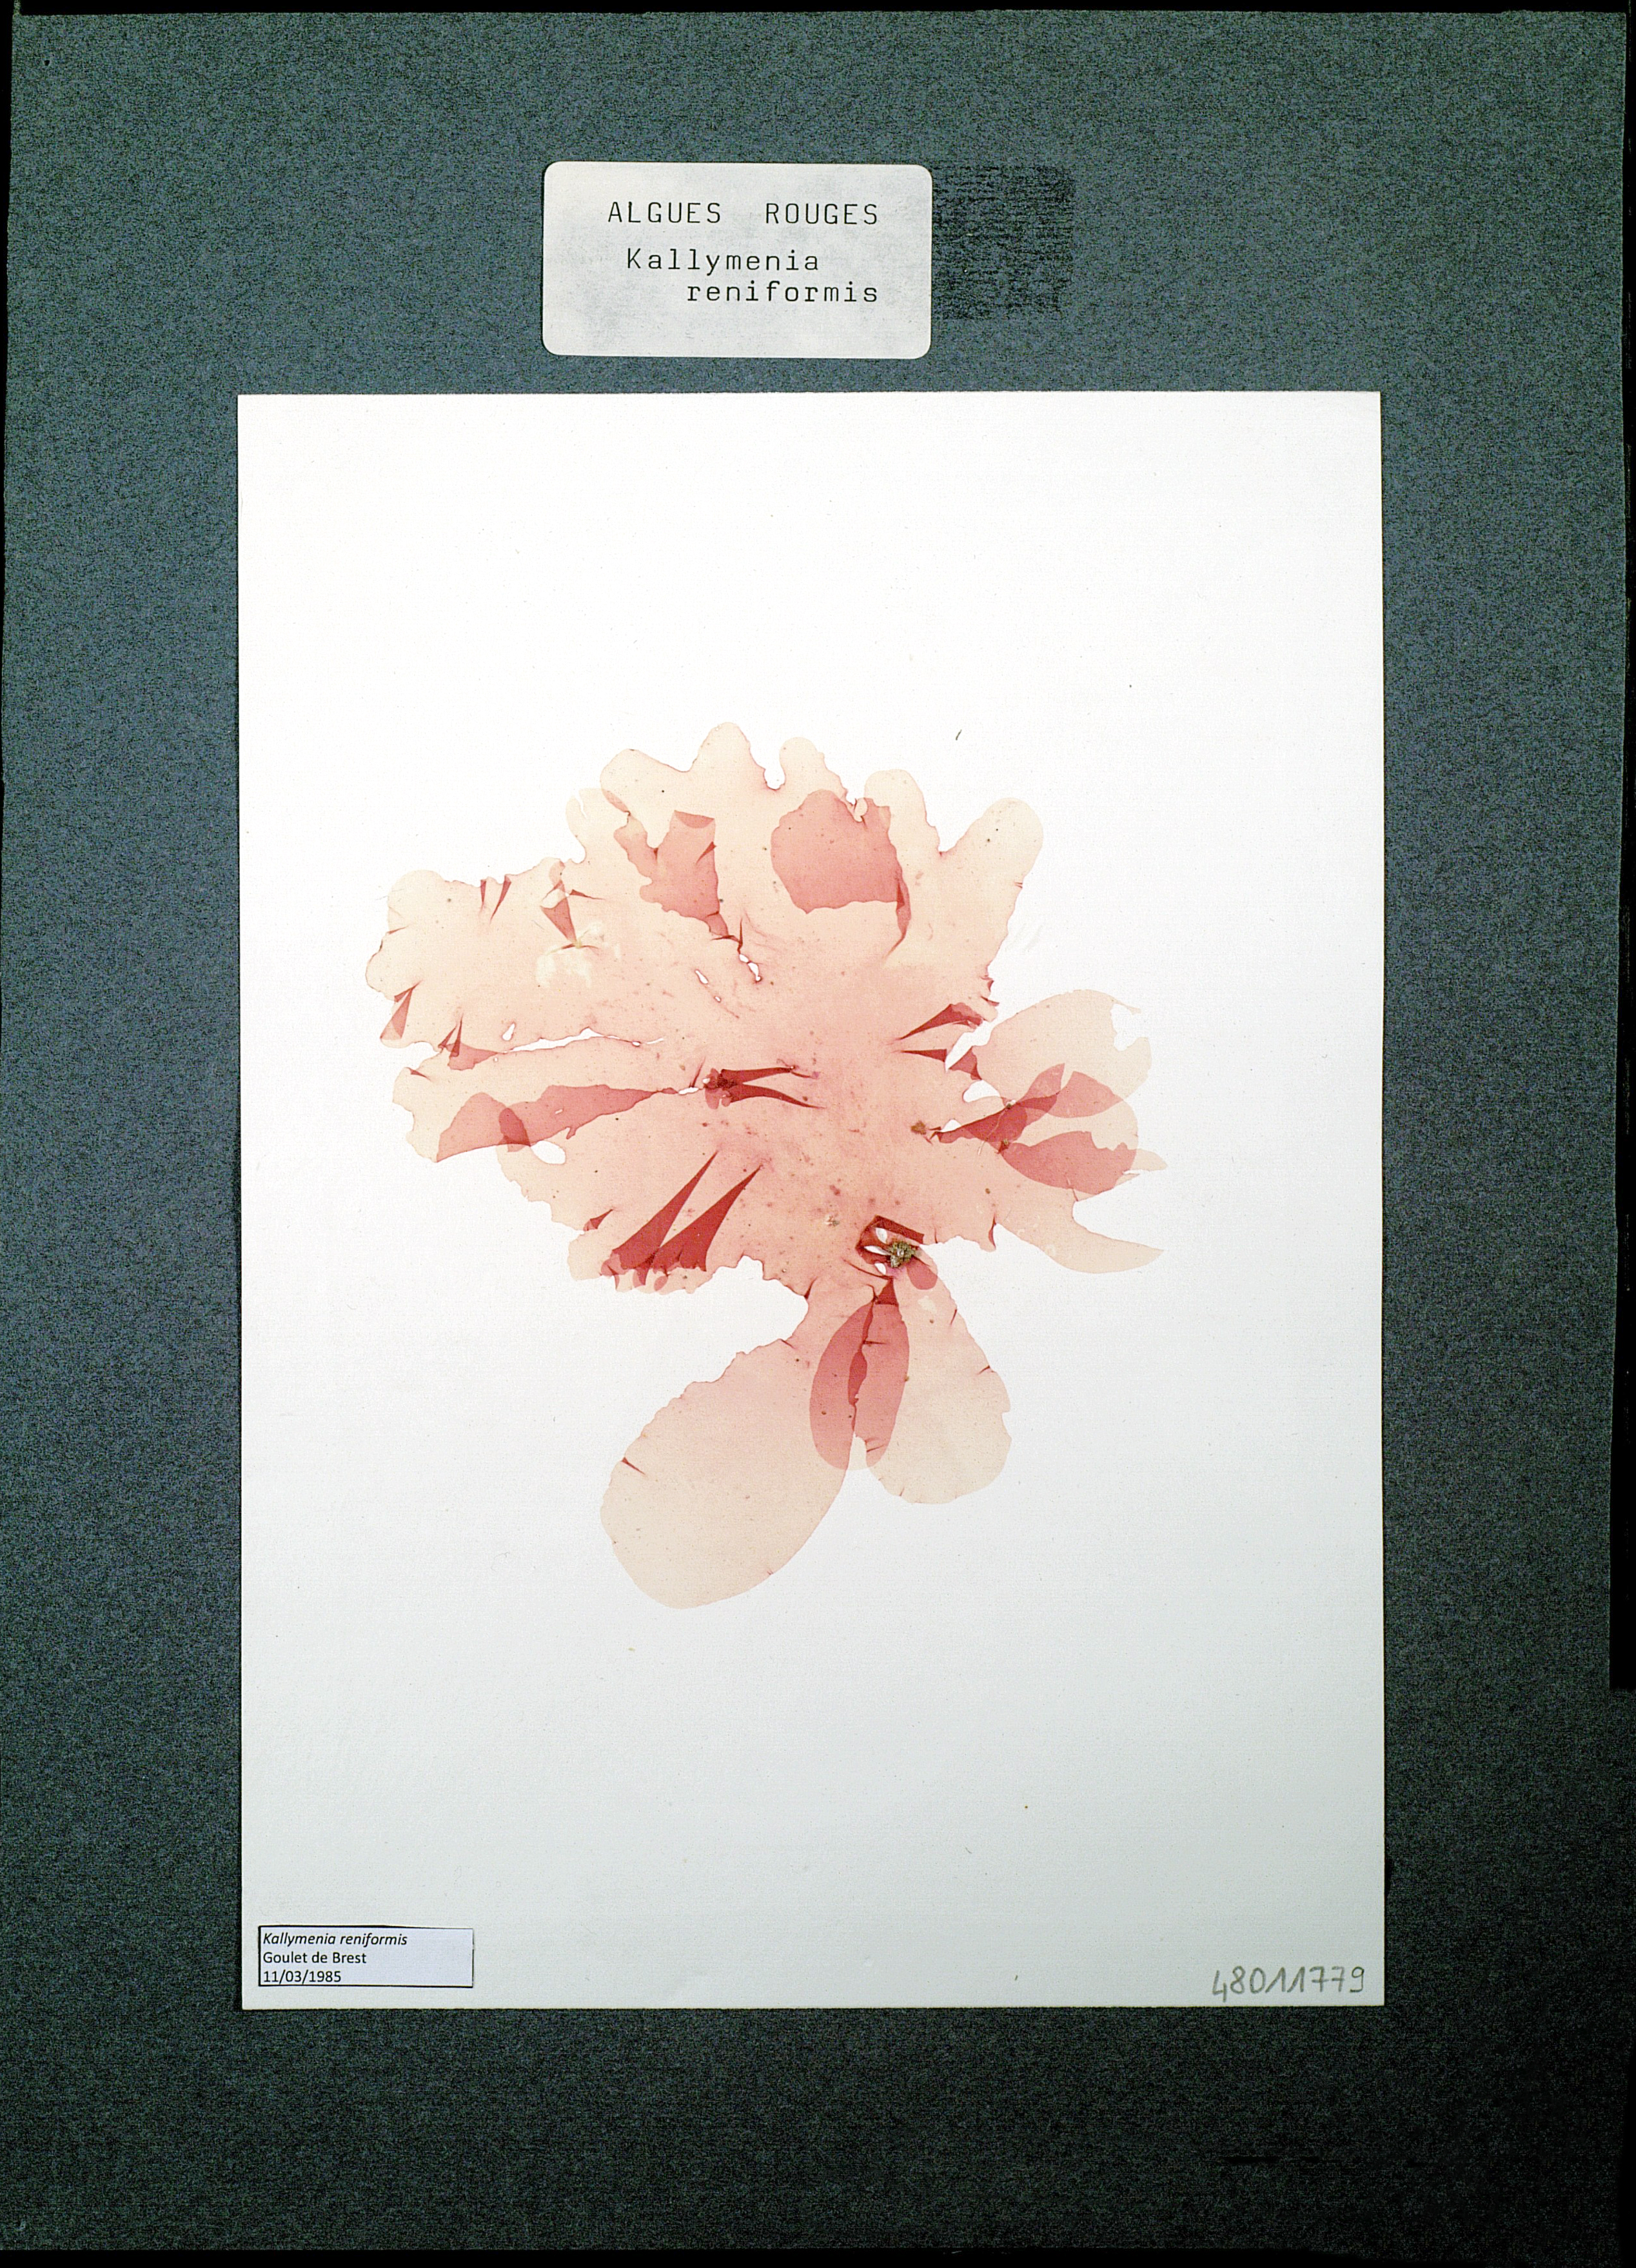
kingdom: Plantae
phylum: Rhodophyta
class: Florideophyceae
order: Gigartinales
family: Kallymeniaceae
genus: Kallymenia
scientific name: Kallymenia reniformis
